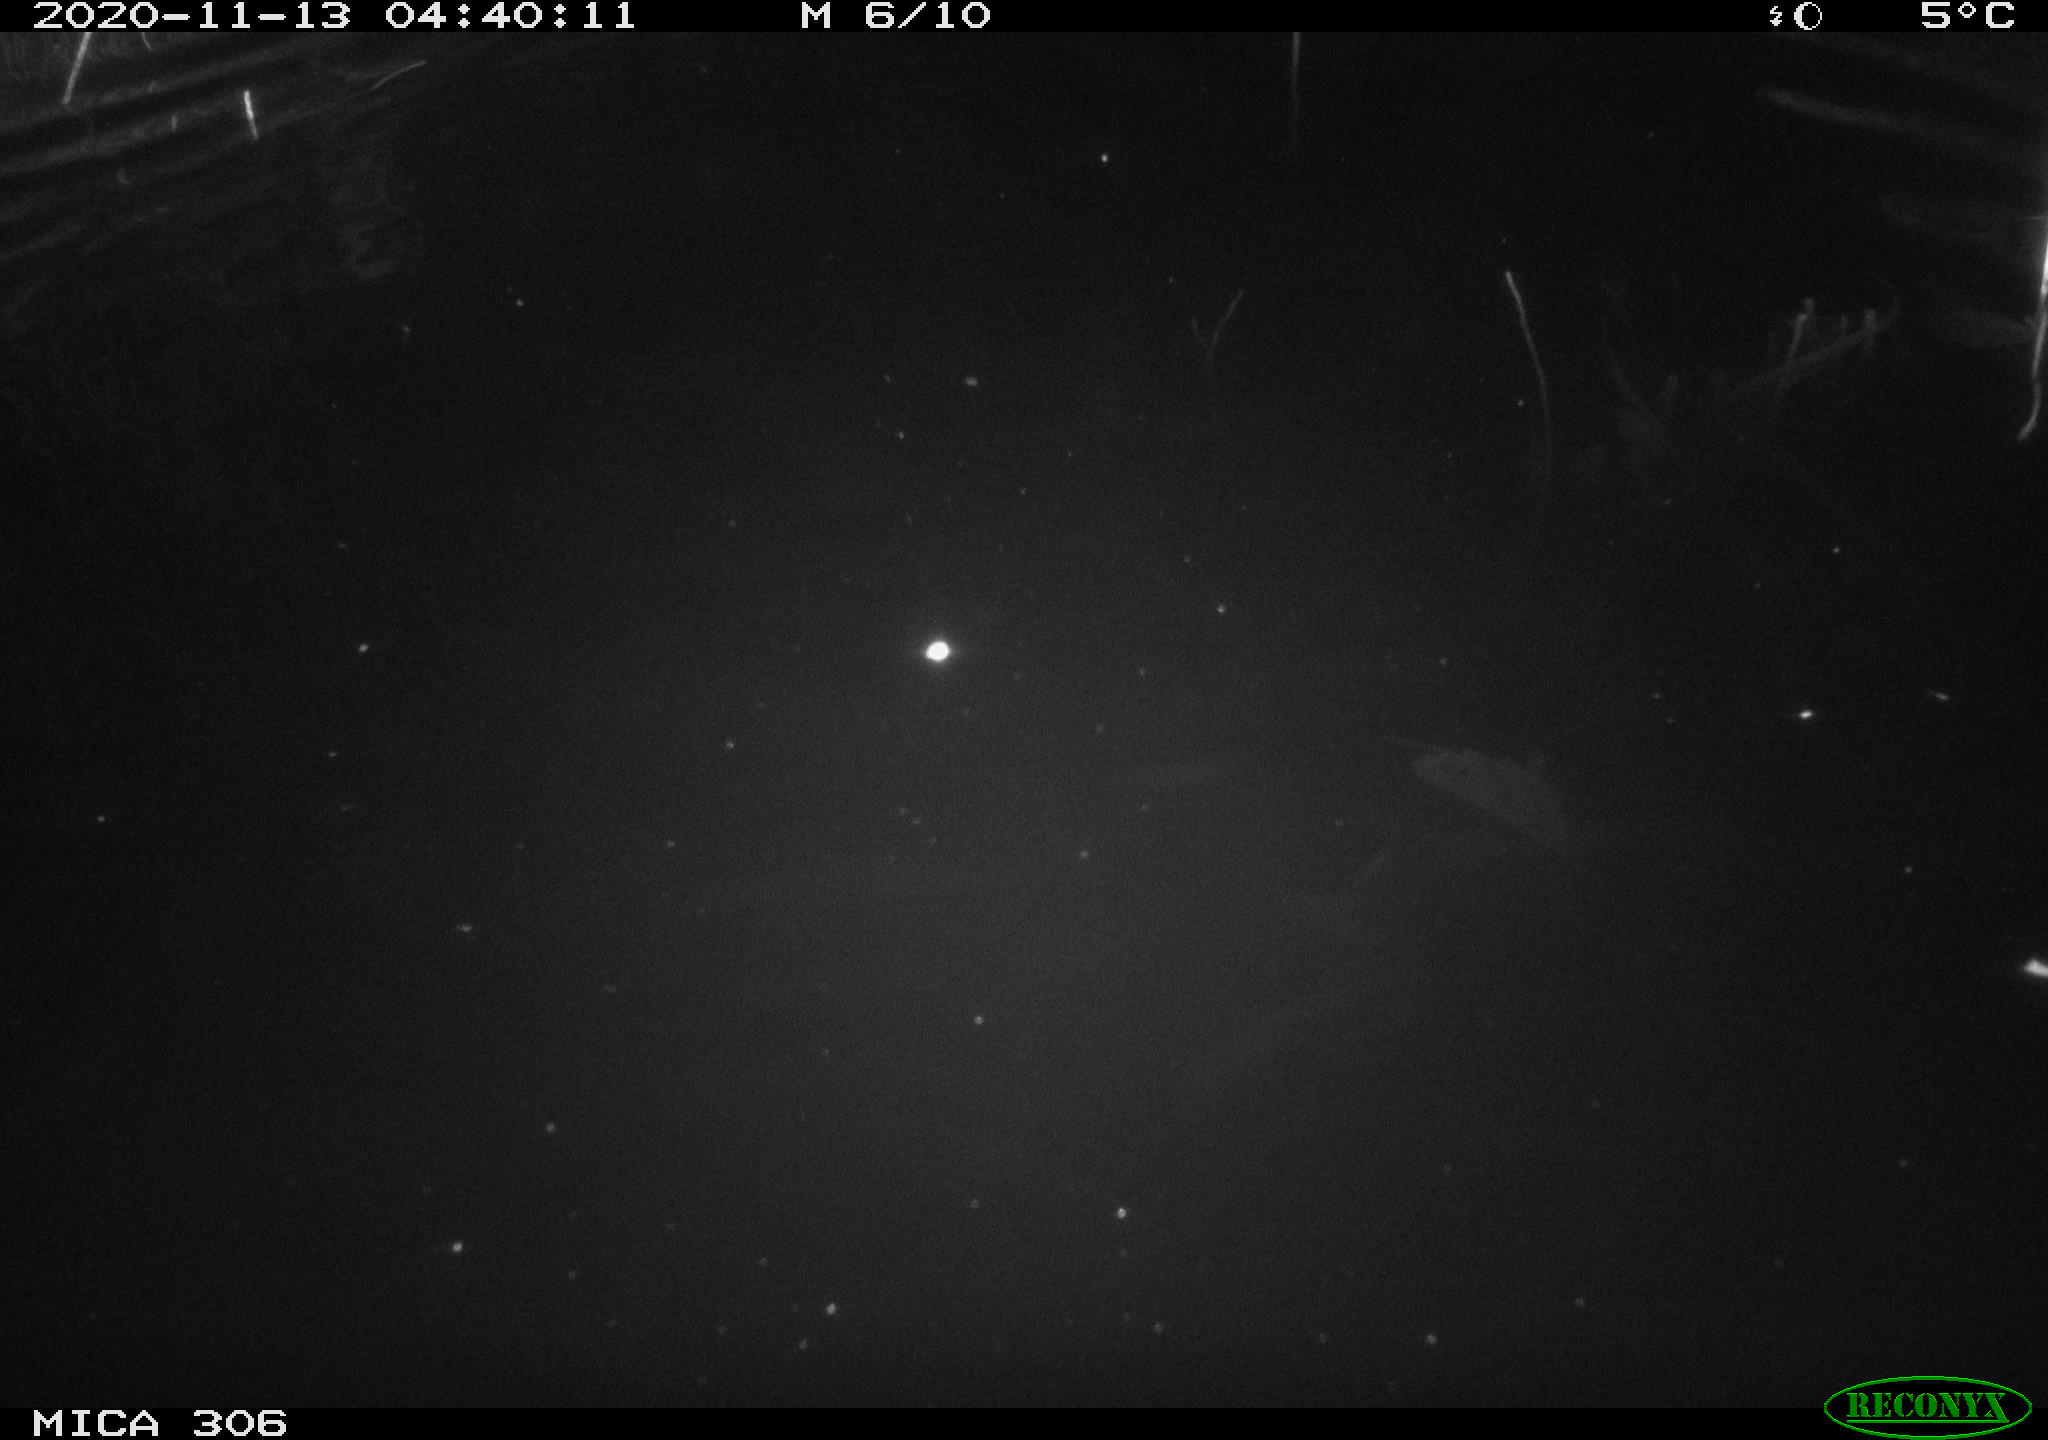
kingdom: Animalia
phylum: Chordata
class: Mammalia
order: Rodentia
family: Cricetidae
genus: Ondatra
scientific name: Ondatra zibethicus
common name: Muskrat
